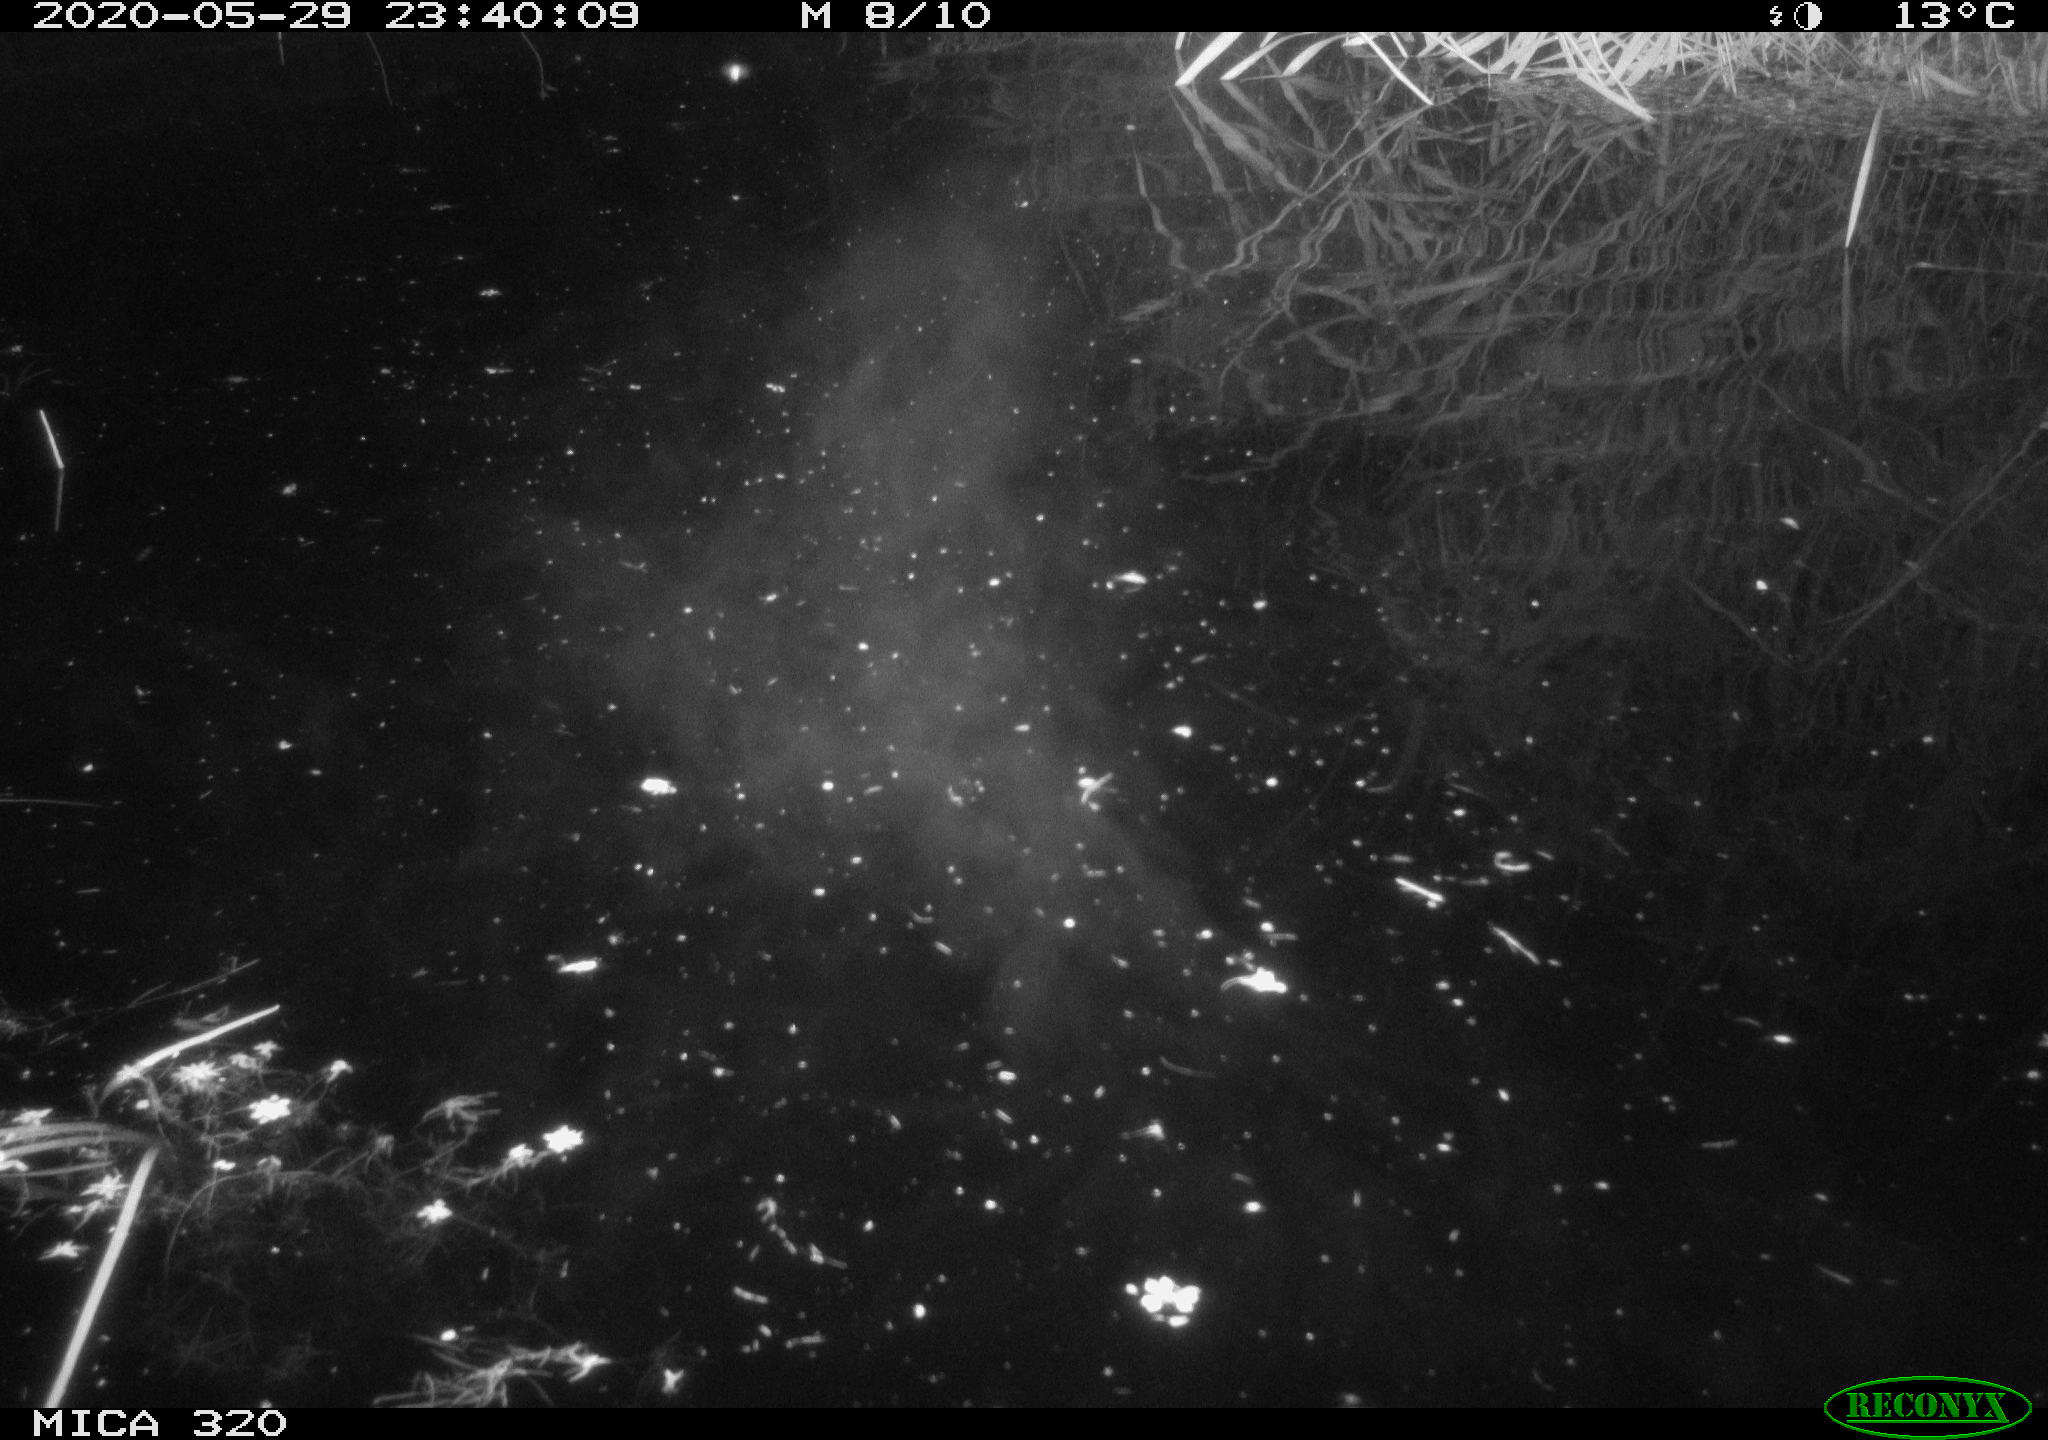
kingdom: Animalia
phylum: Chordata
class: Aves
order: Anseriformes
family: Anatidae
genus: Anas
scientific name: Anas platyrhynchos
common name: Mallard
